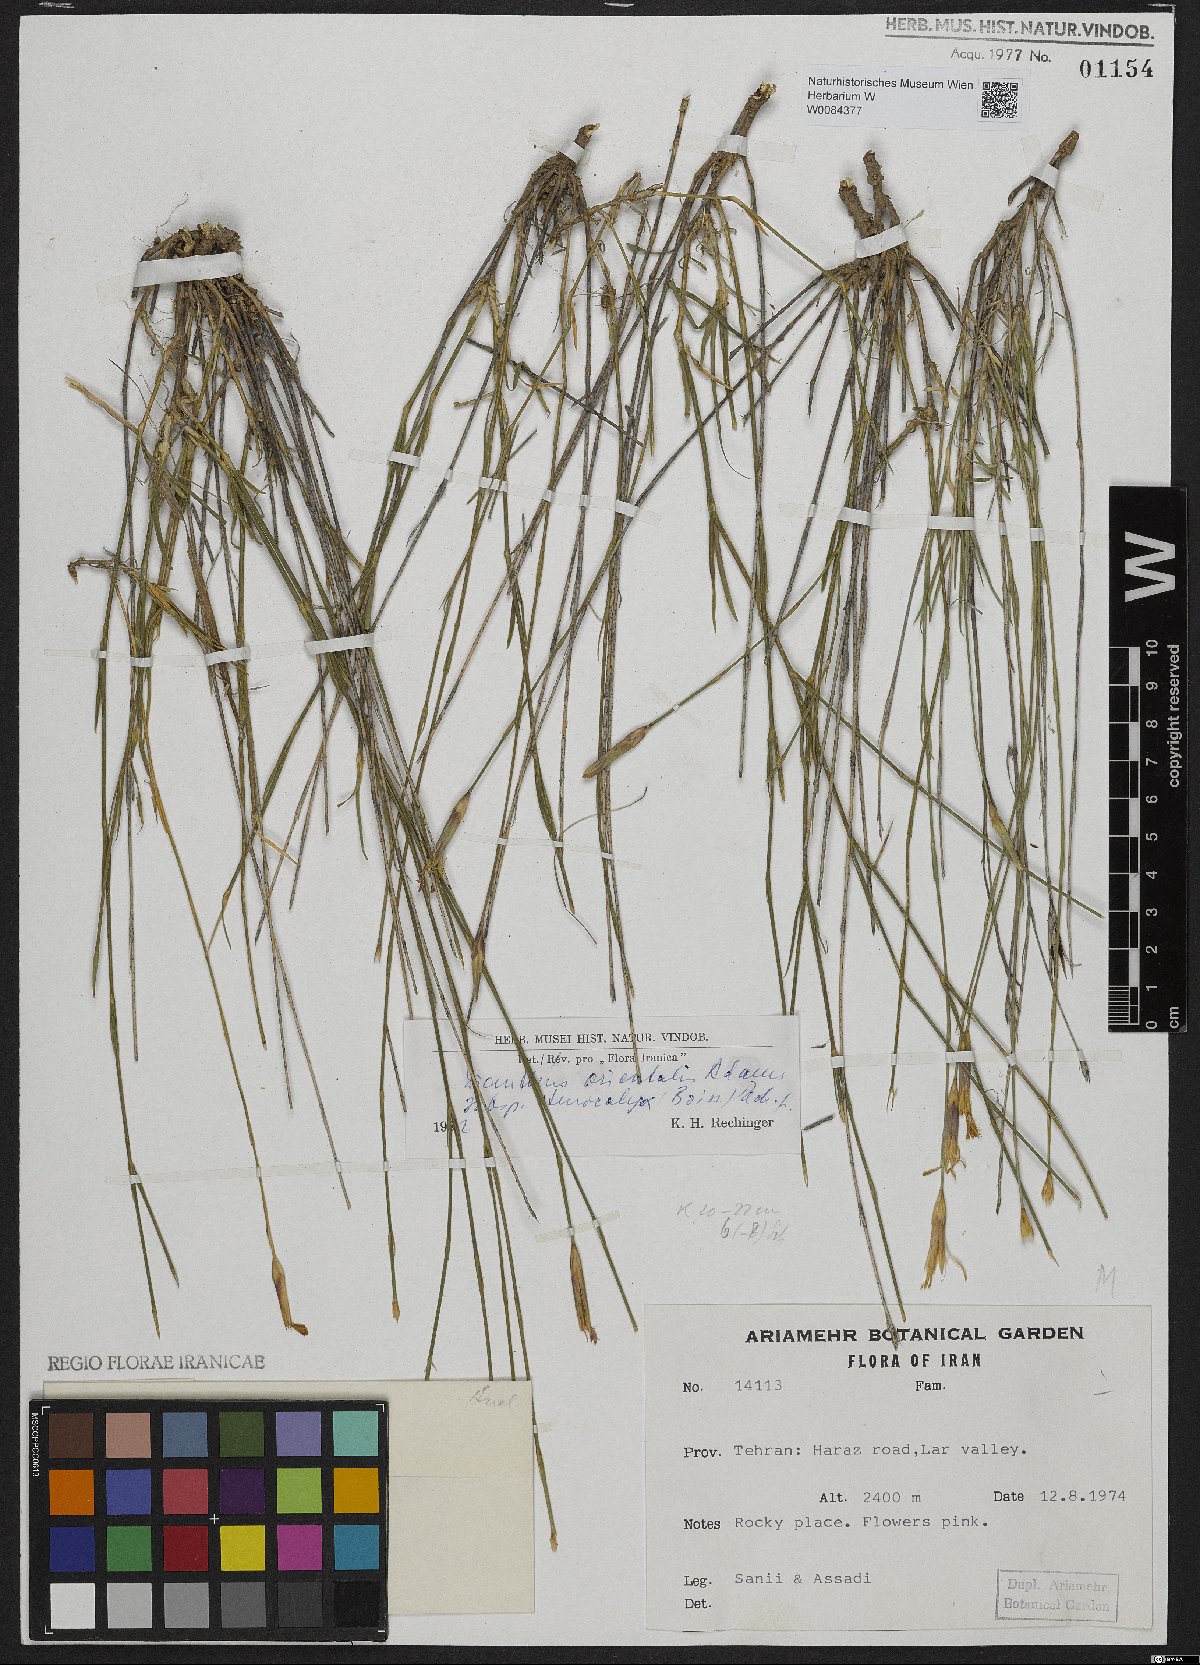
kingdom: Plantae
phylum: Tracheophyta
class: Magnoliopsida
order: Caryophyllales
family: Caryophyllaceae
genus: Dianthus
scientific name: Dianthus orientalis
